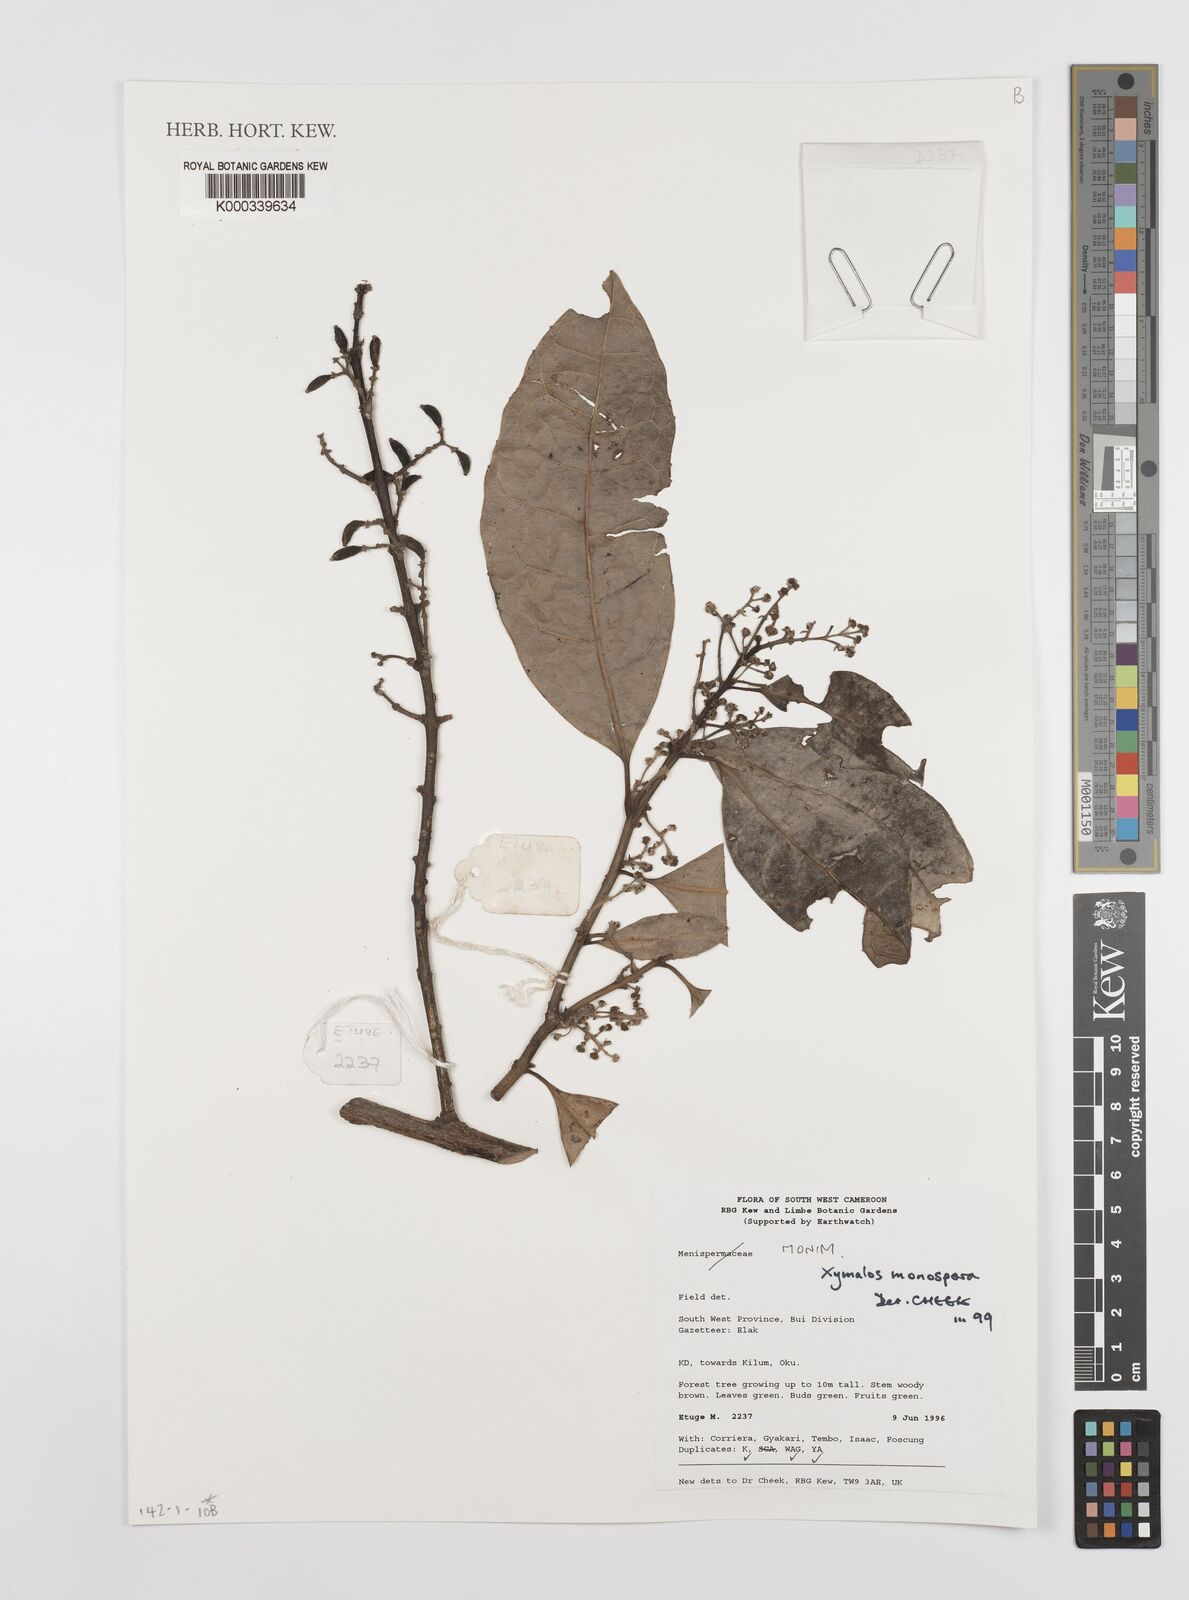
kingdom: Plantae
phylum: Tracheophyta
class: Magnoliopsida
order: Laurales
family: Monimiaceae
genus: Xymalos
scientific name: Xymalos
